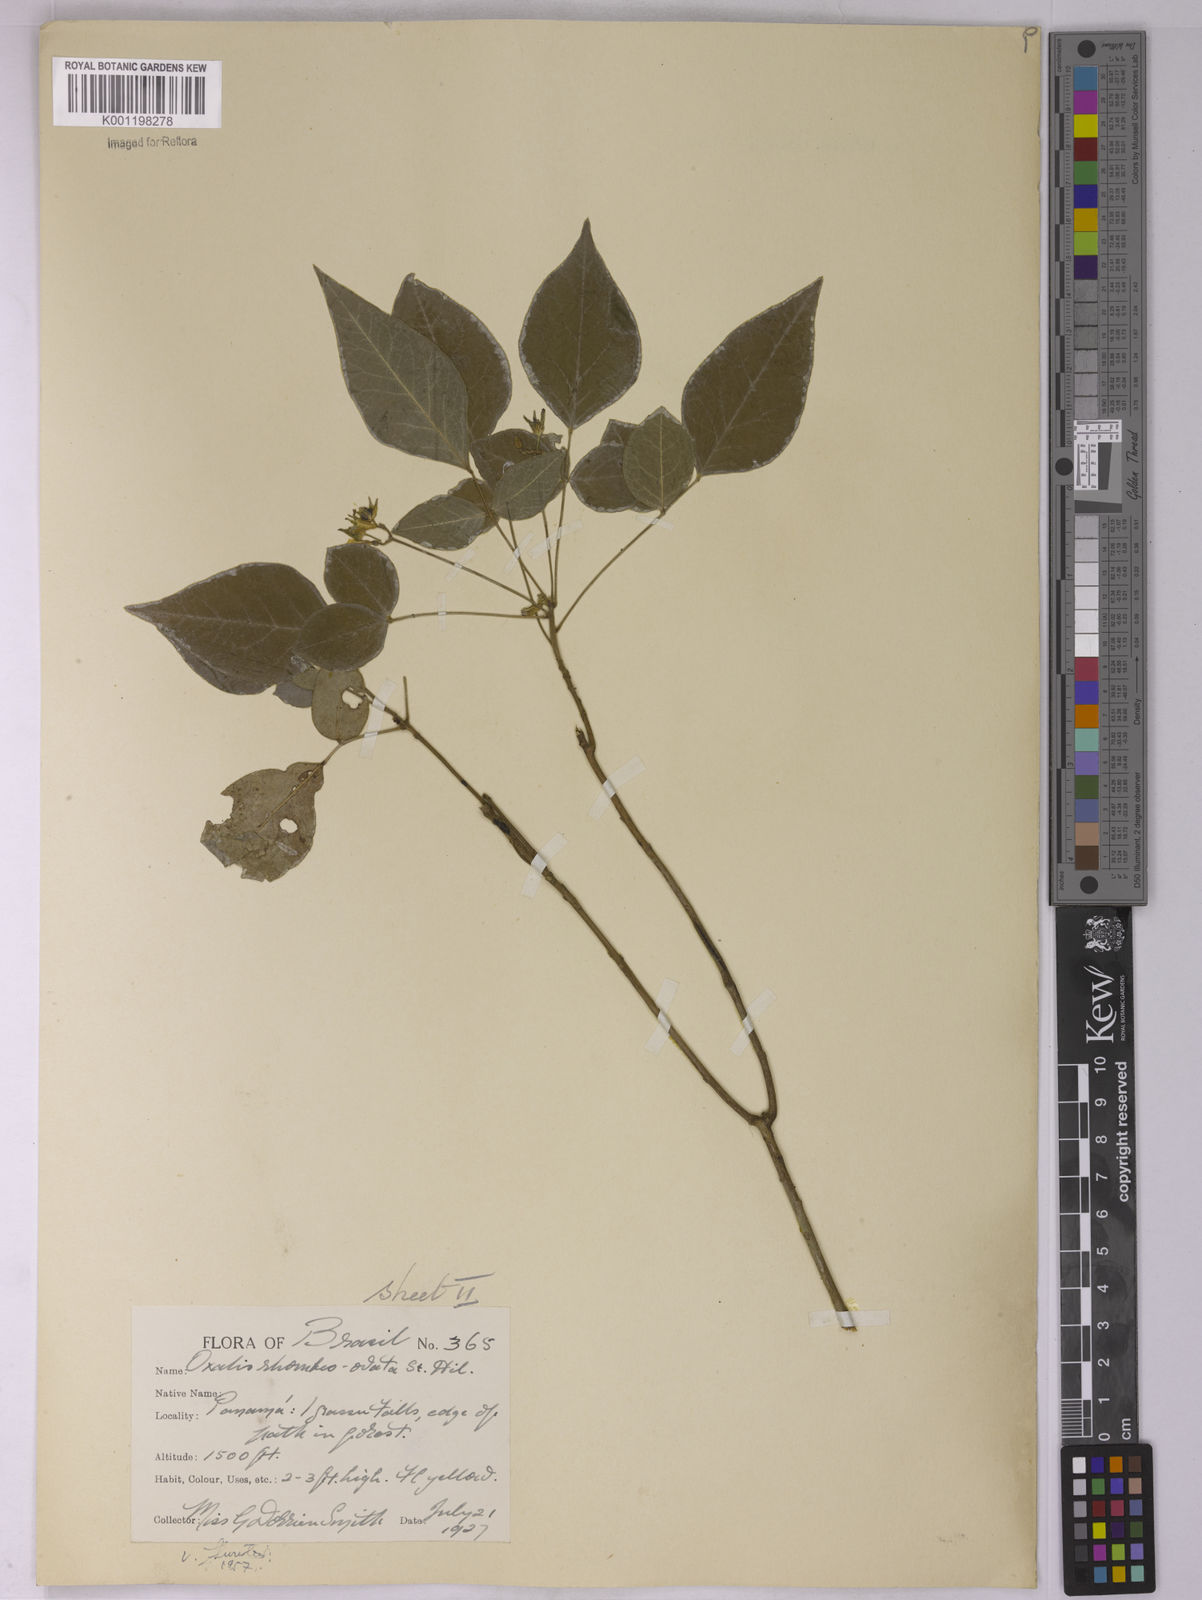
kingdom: Plantae
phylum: Tracheophyta
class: Magnoliopsida
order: Oxalidales
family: Oxalidaceae
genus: Oxalis
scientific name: Oxalis rhombeo-ovata
